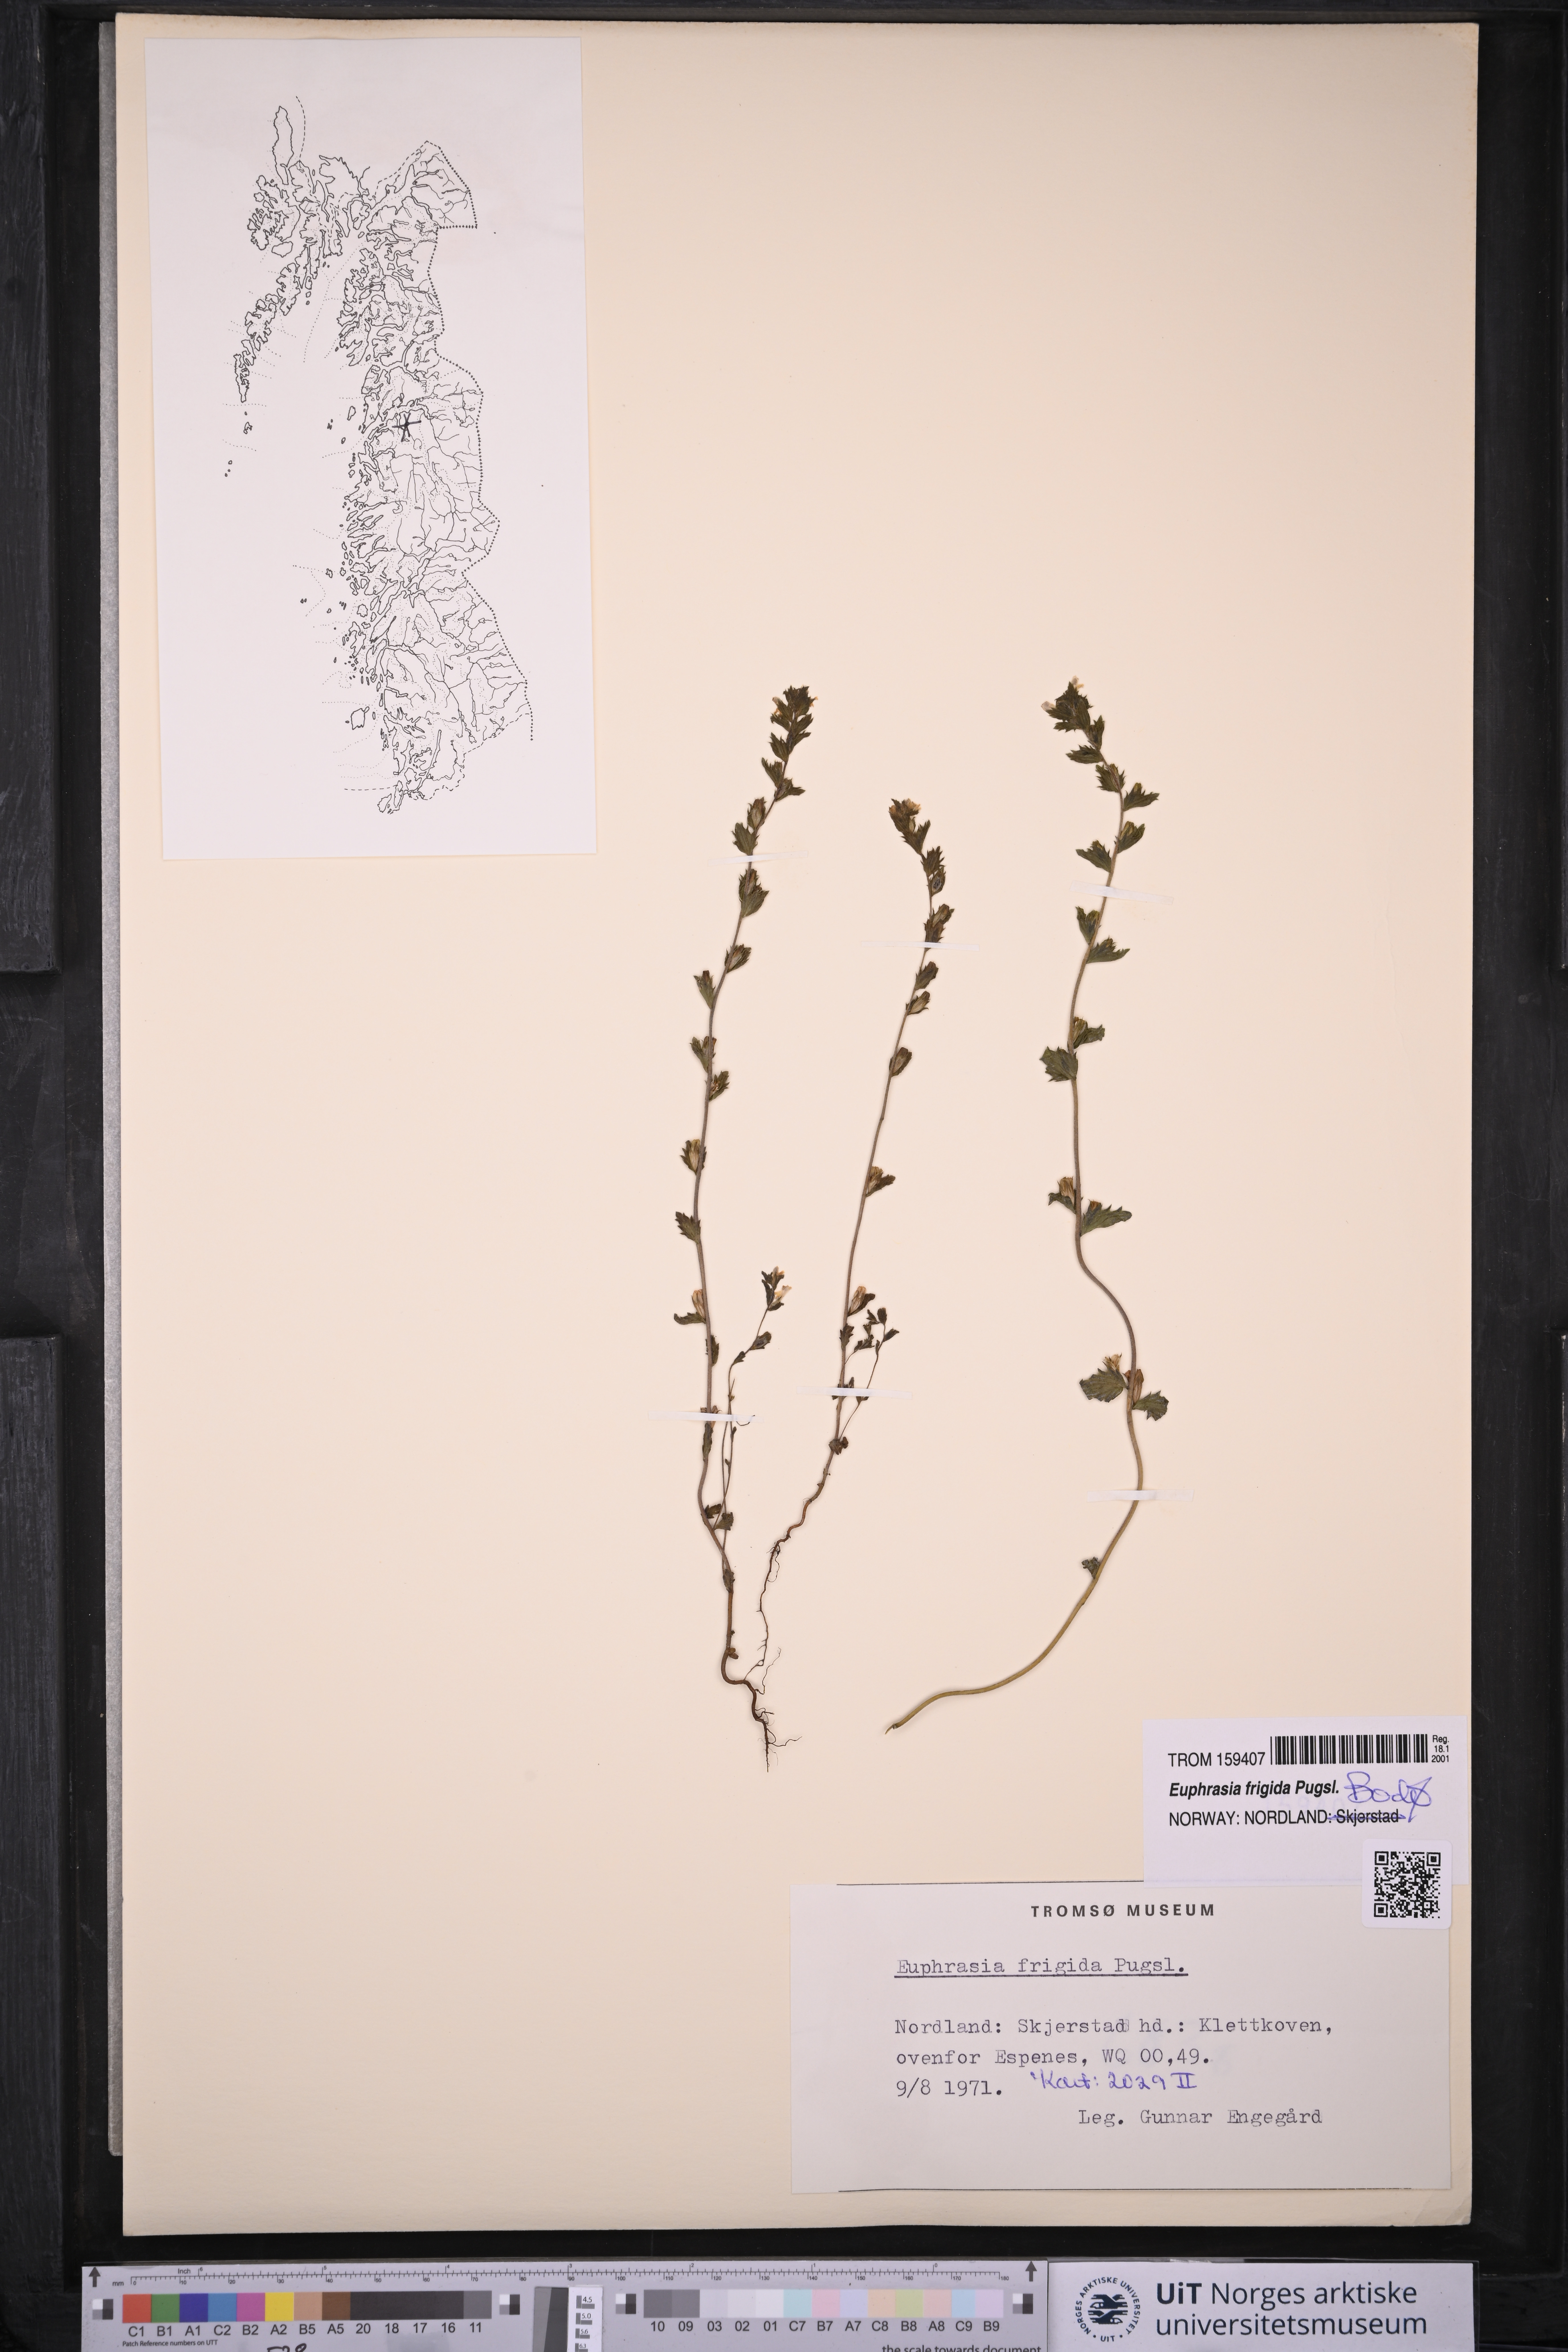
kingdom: Plantae
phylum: Tracheophyta
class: Magnoliopsida
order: Lamiales
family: Orobanchaceae
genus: Euphrasia
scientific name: Euphrasia frigida
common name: An eyebright
